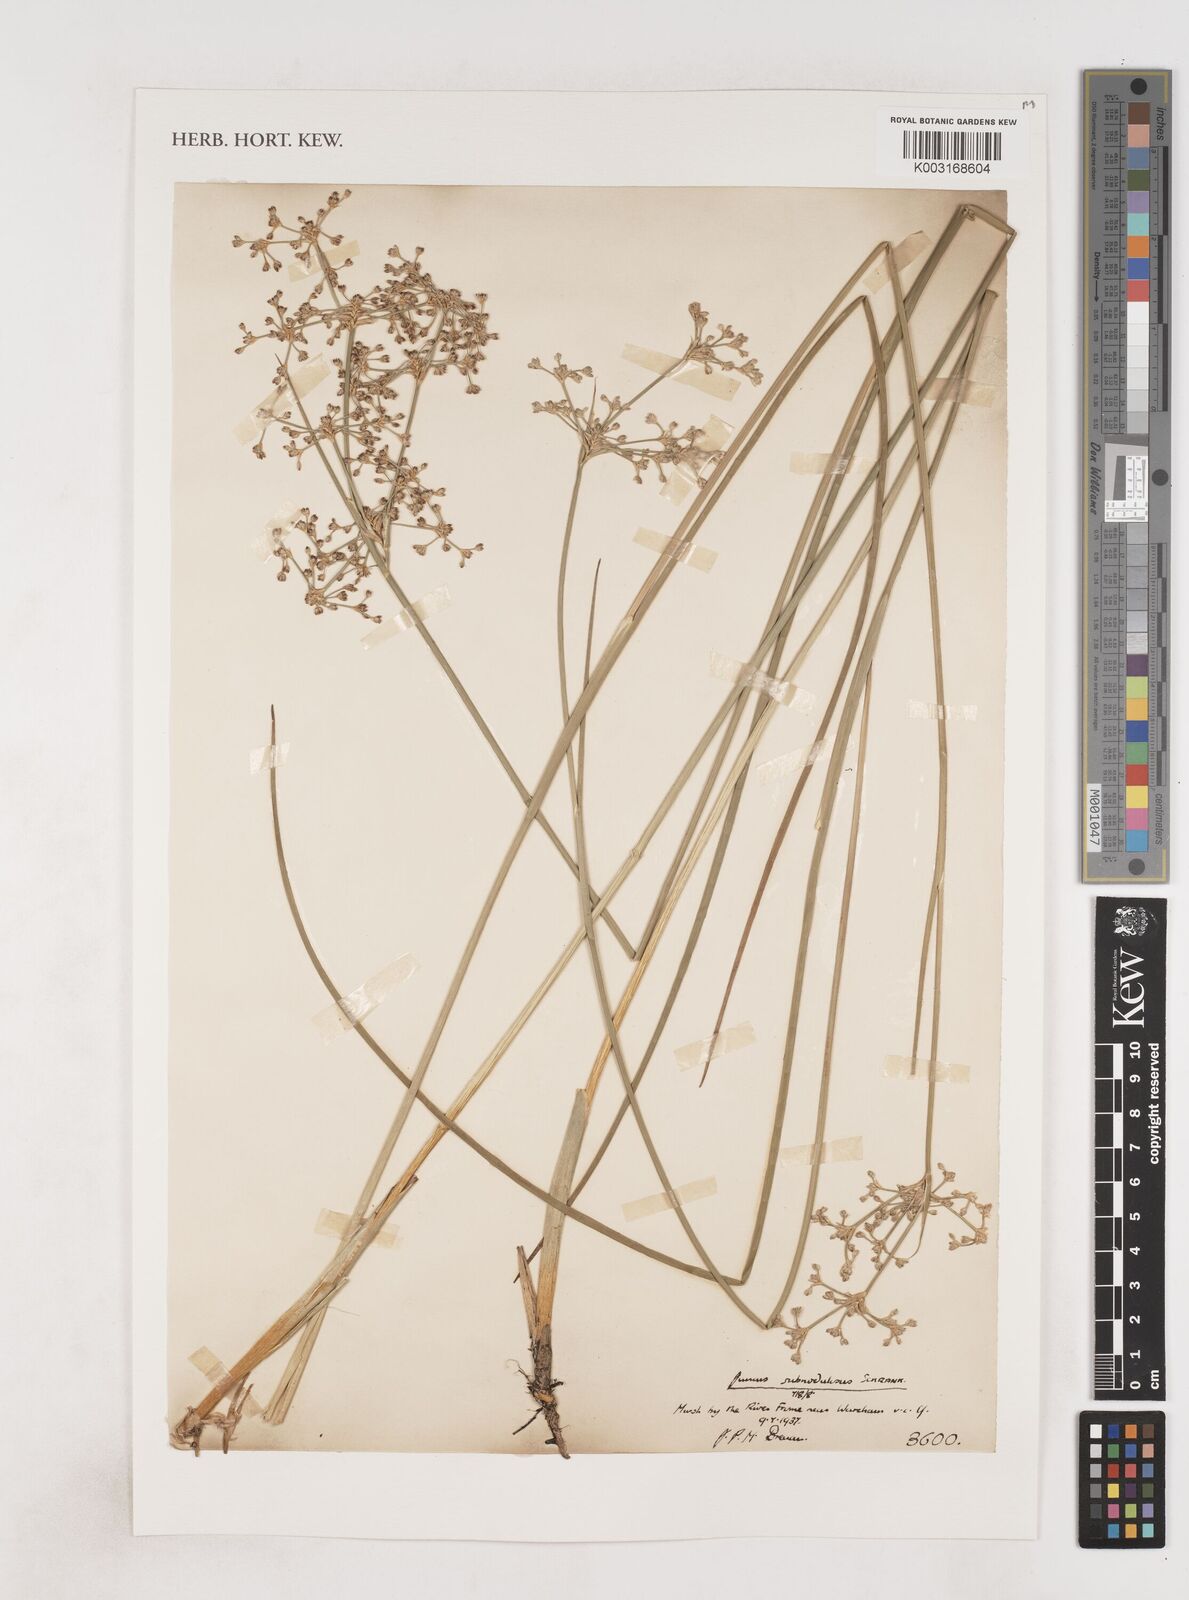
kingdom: Plantae
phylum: Tracheophyta
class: Liliopsida
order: Poales
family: Juncaceae
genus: Juncus
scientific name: Juncus subnodulosus
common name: Blunt-flowered rush
